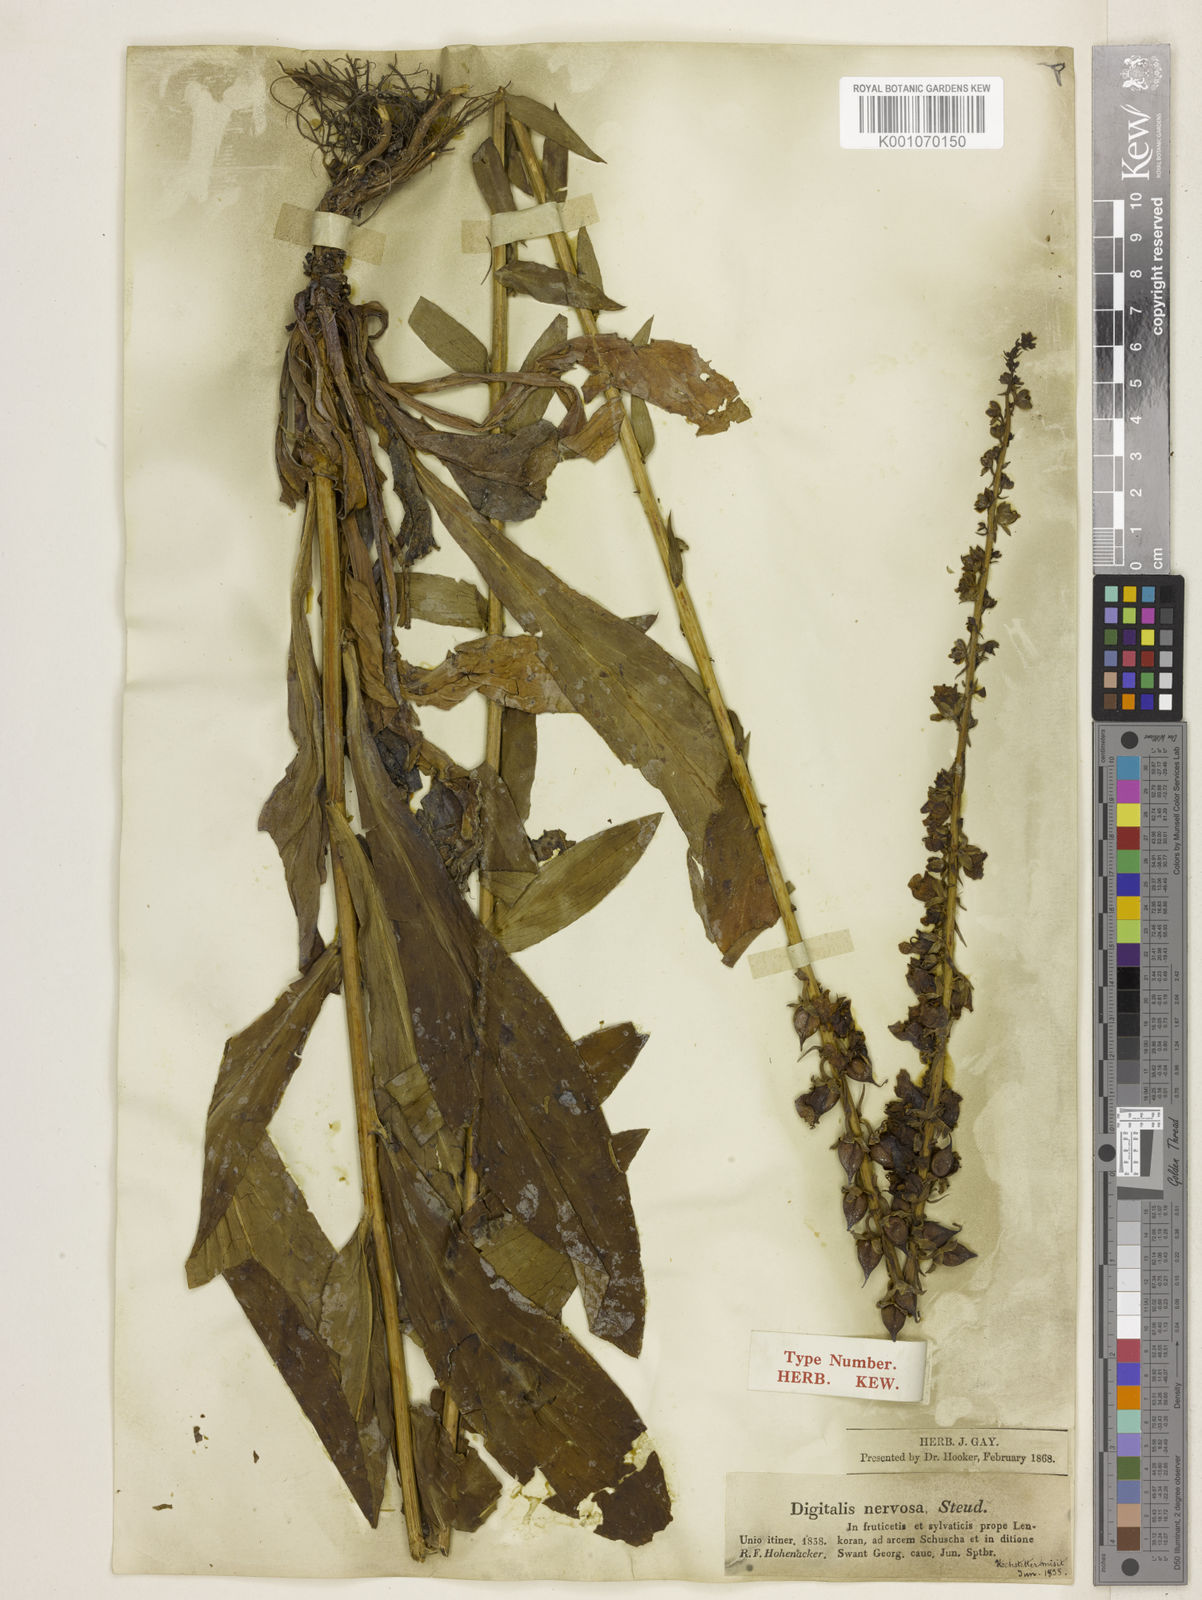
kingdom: Plantae
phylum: Tracheophyta
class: Magnoliopsida
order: Lamiales
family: Plantaginaceae
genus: Digitalis
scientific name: Digitalis nervosa
